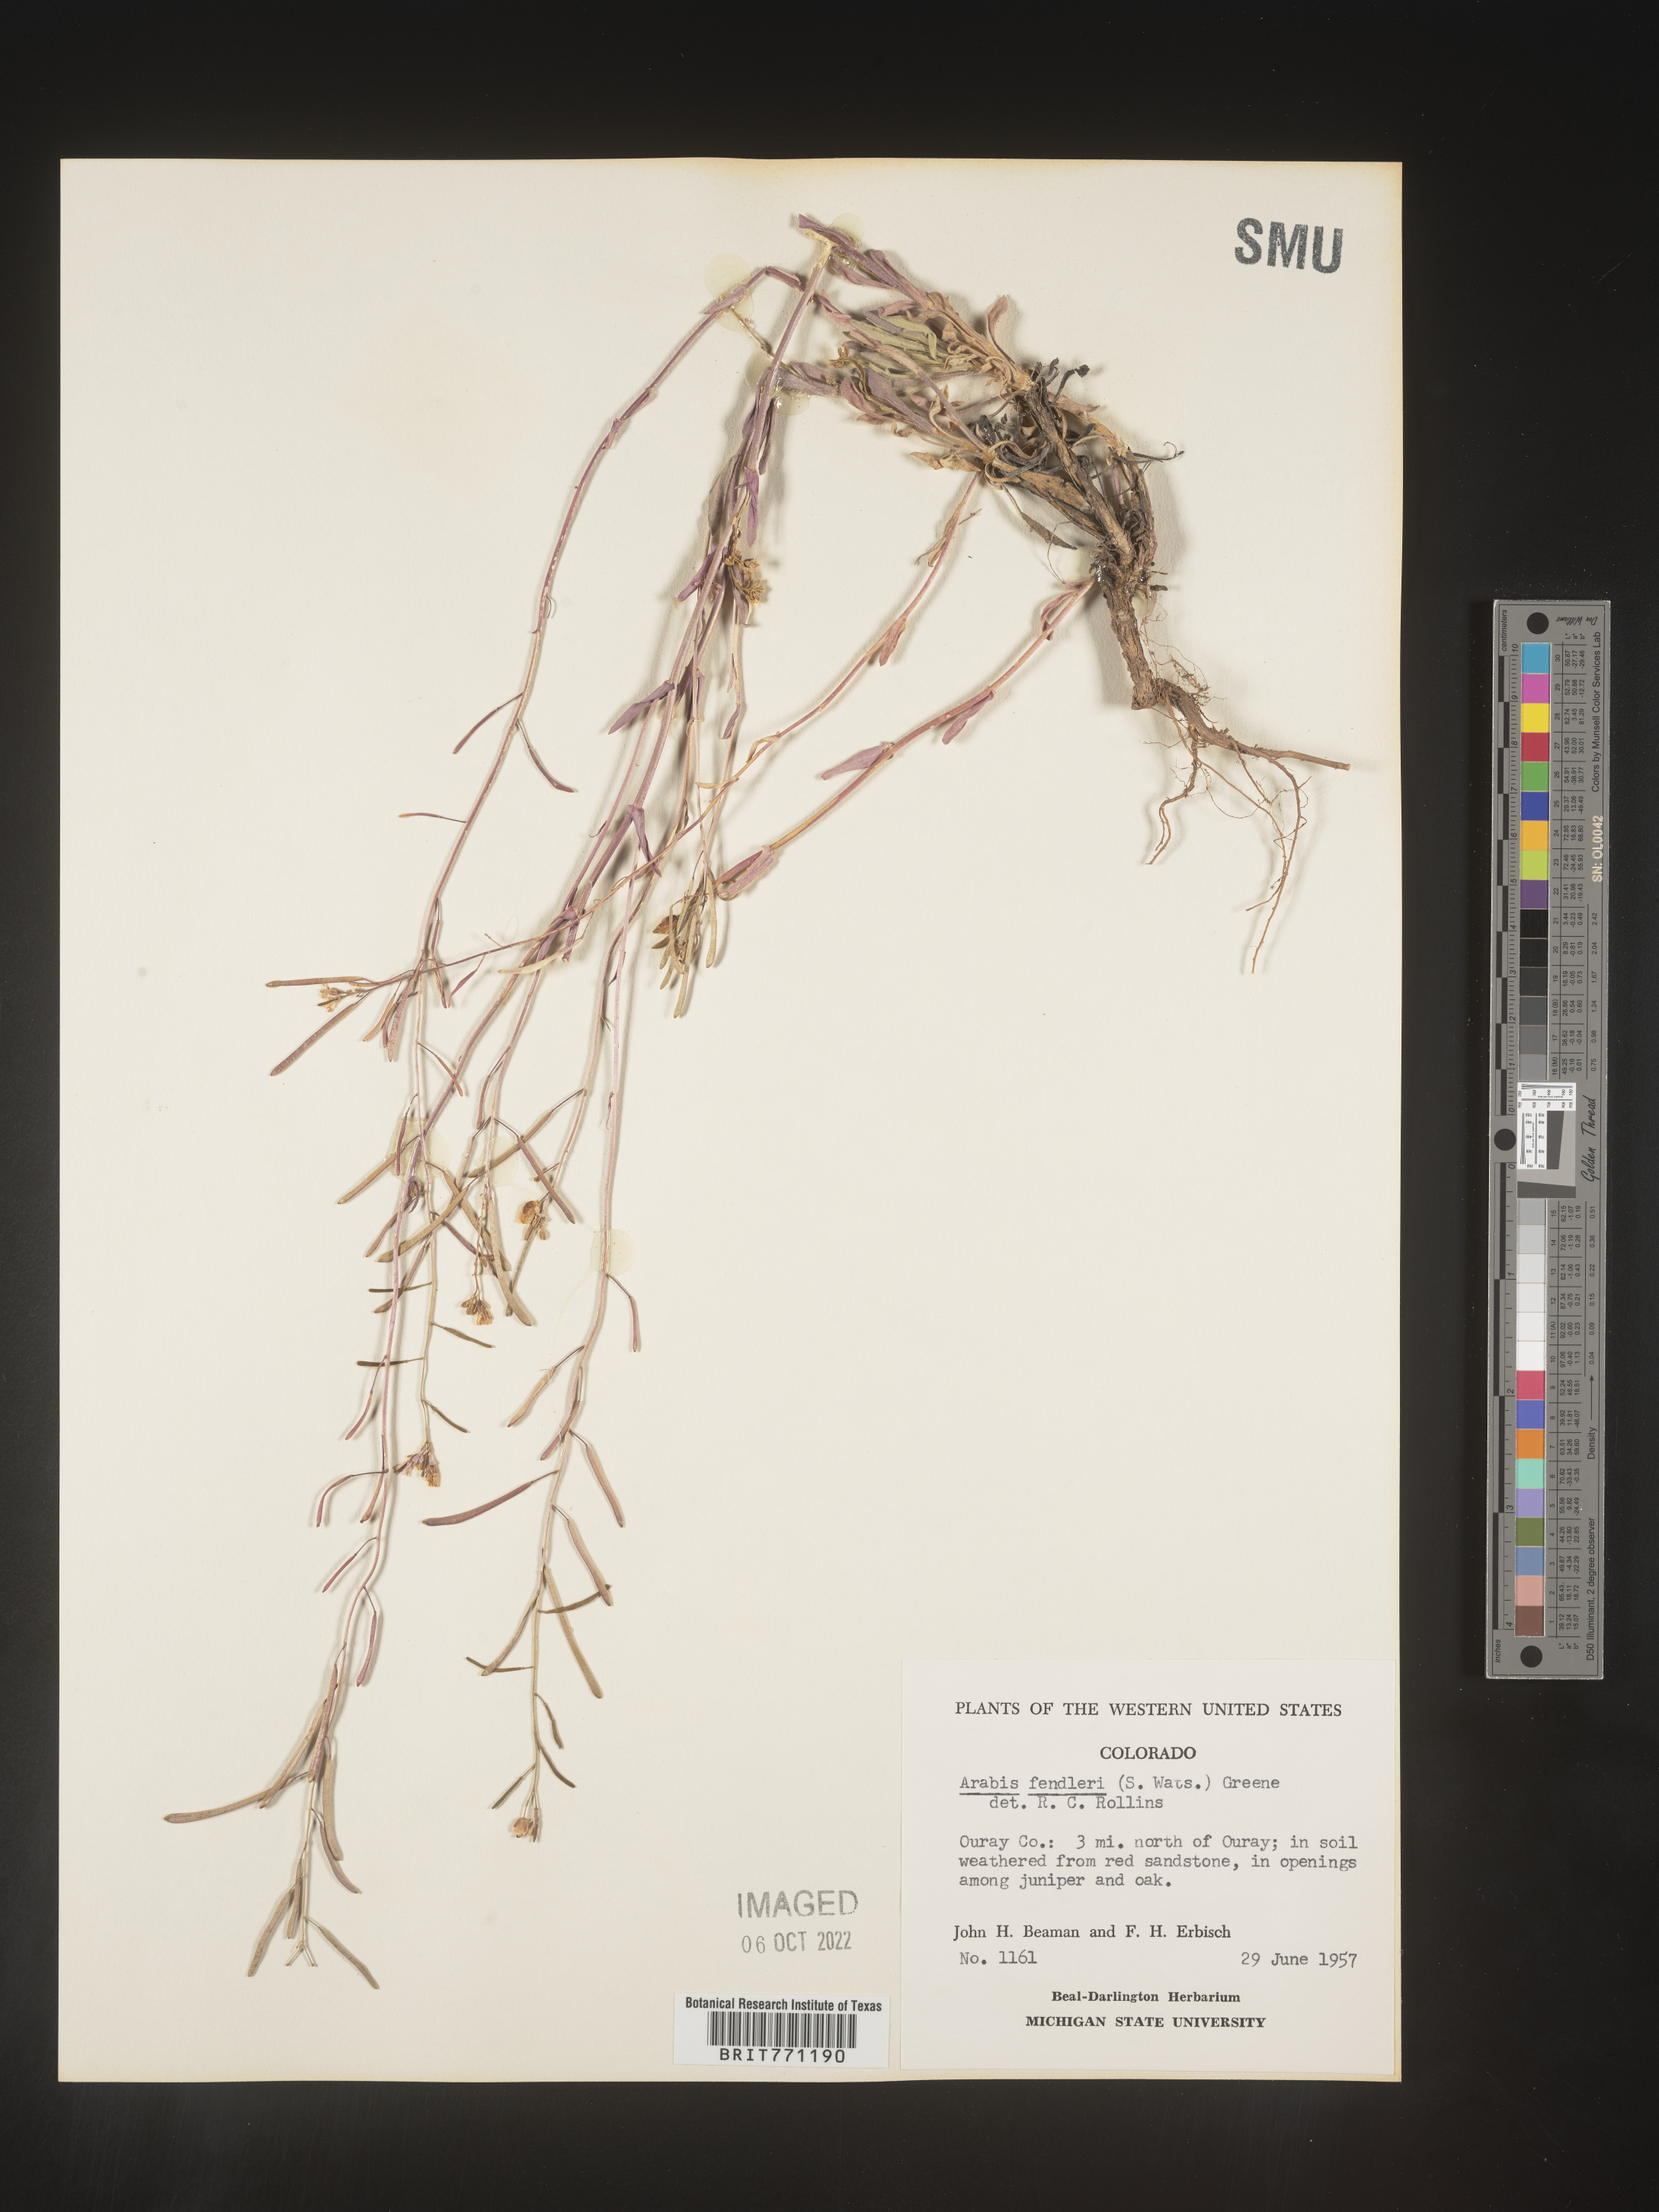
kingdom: Plantae
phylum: Tracheophyta
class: Magnoliopsida
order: Brassicales
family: Brassicaceae
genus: Arabis
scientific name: Arabis
